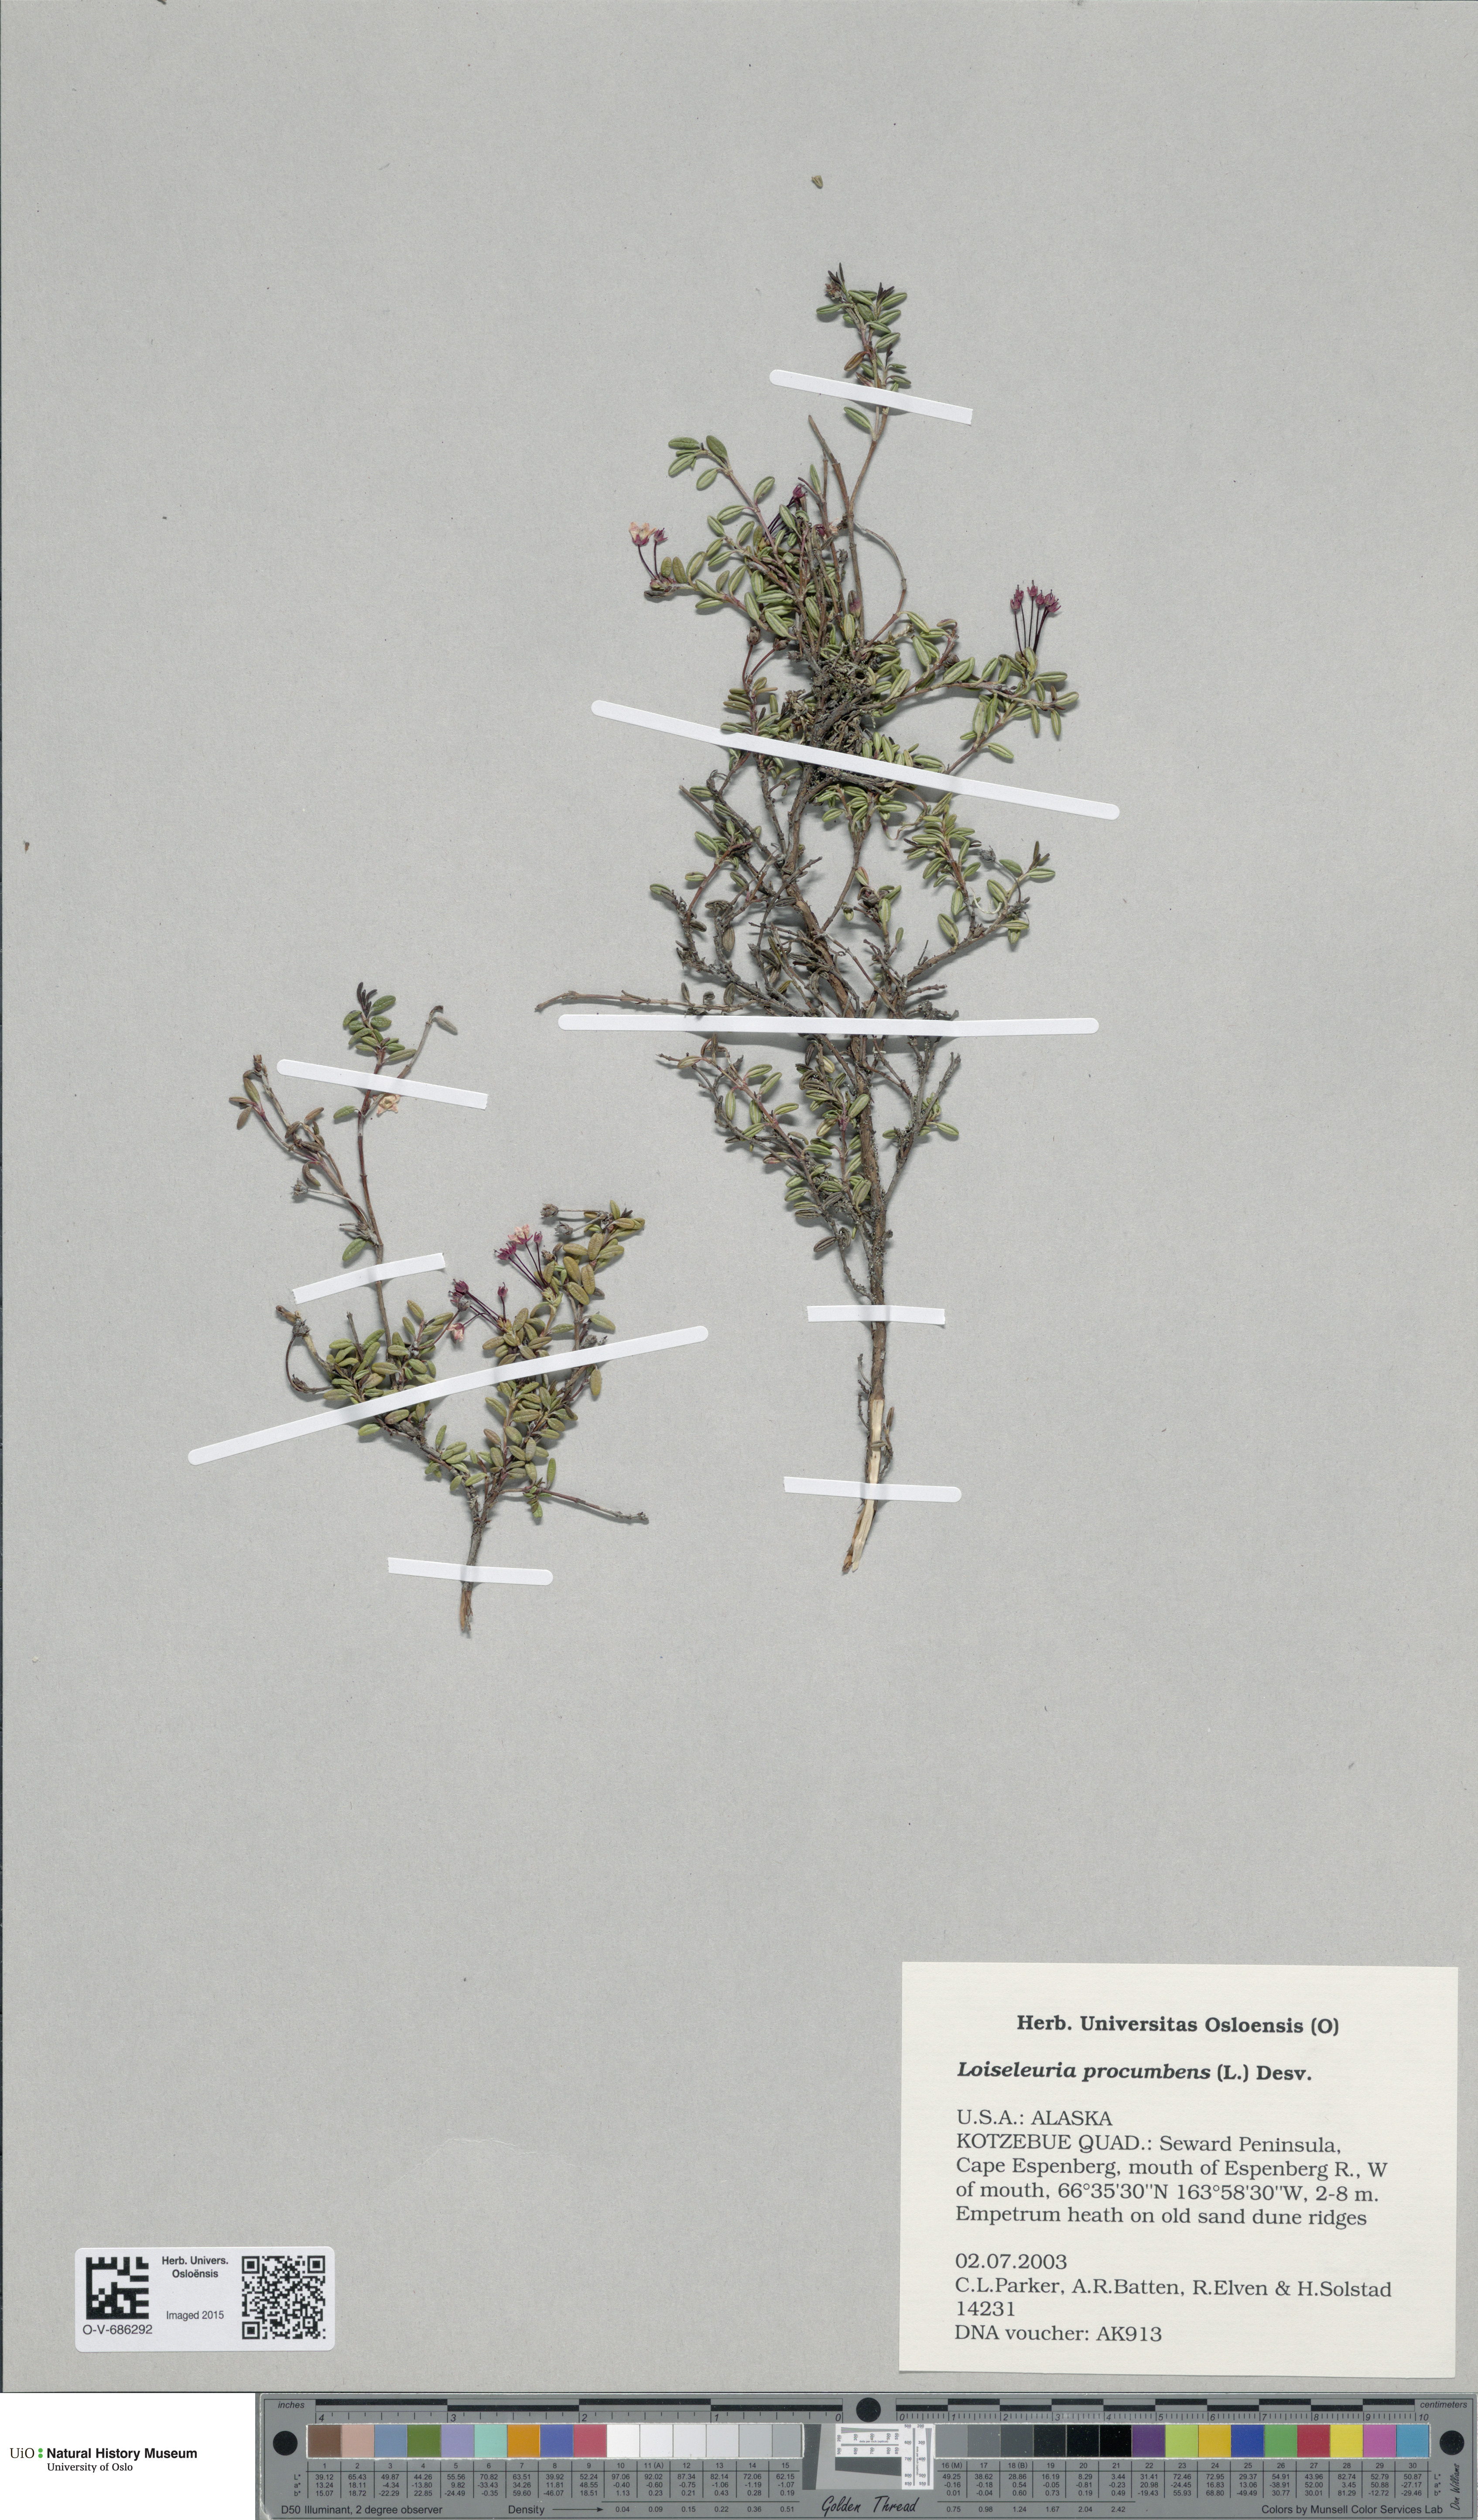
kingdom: Plantae
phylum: Tracheophyta
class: Magnoliopsida
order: Ericales
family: Ericaceae
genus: Kalmia
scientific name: Kalmia procumbens
